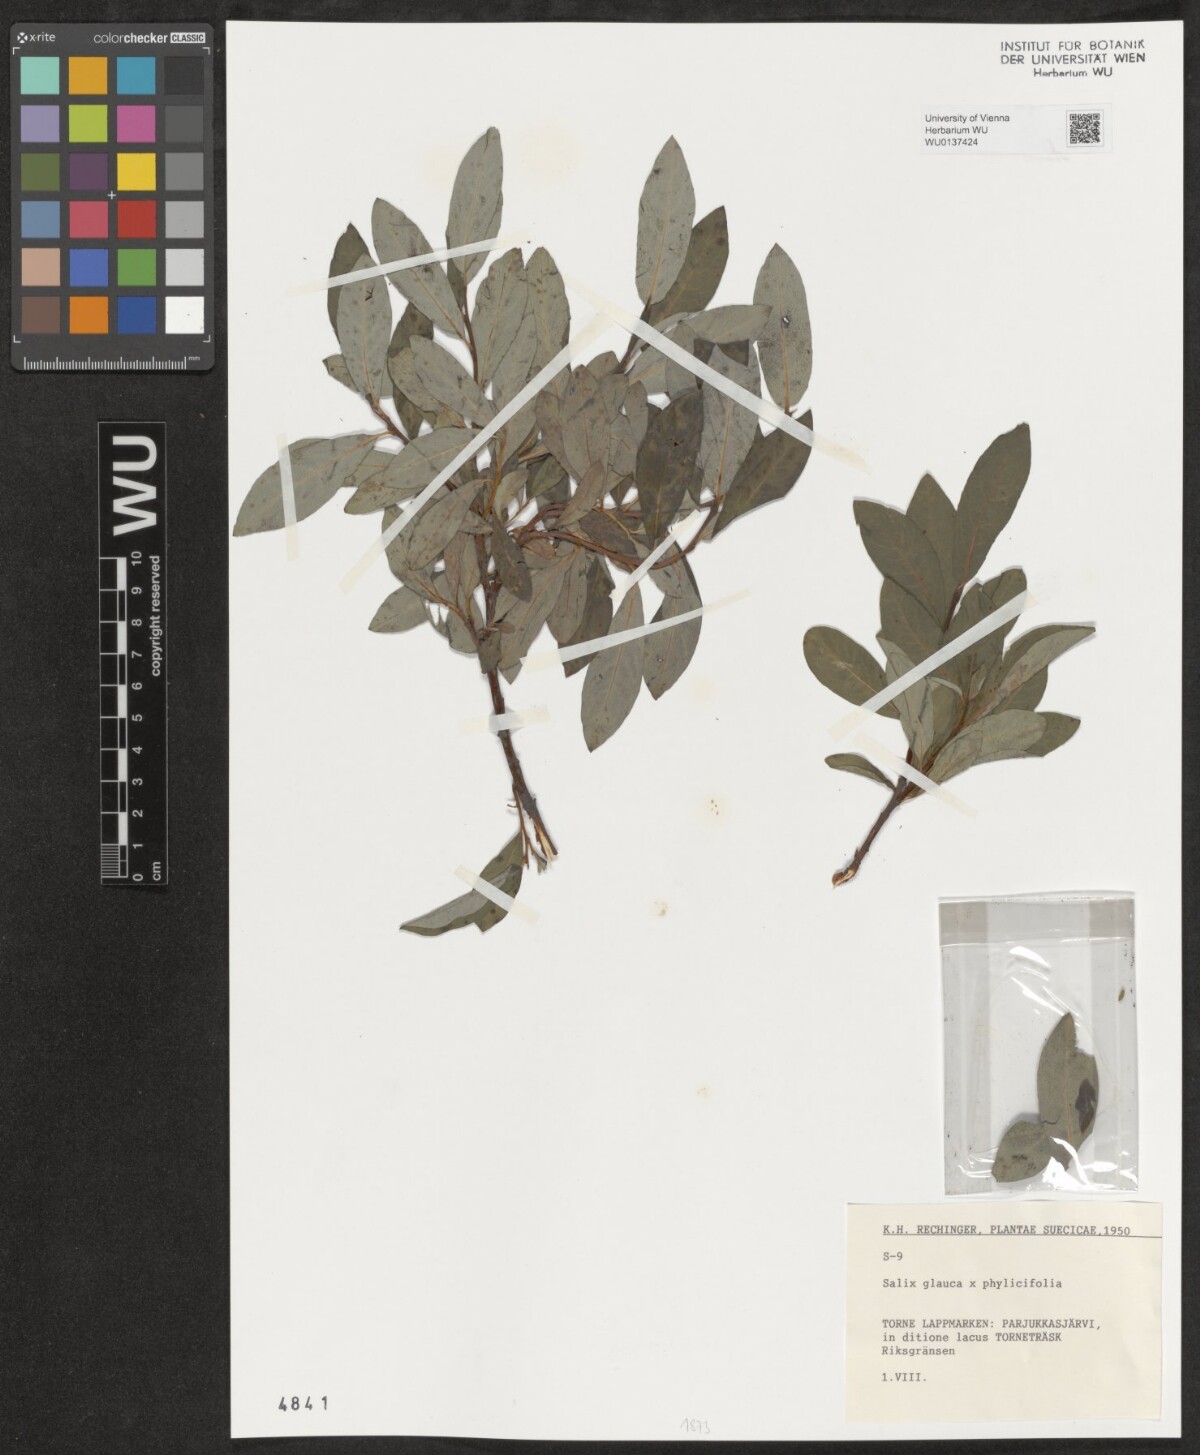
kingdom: Plantae
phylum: Tracheophyta
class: Magnoliopsida
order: Malpighiales
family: Salicaceae
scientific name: Salicaceae
